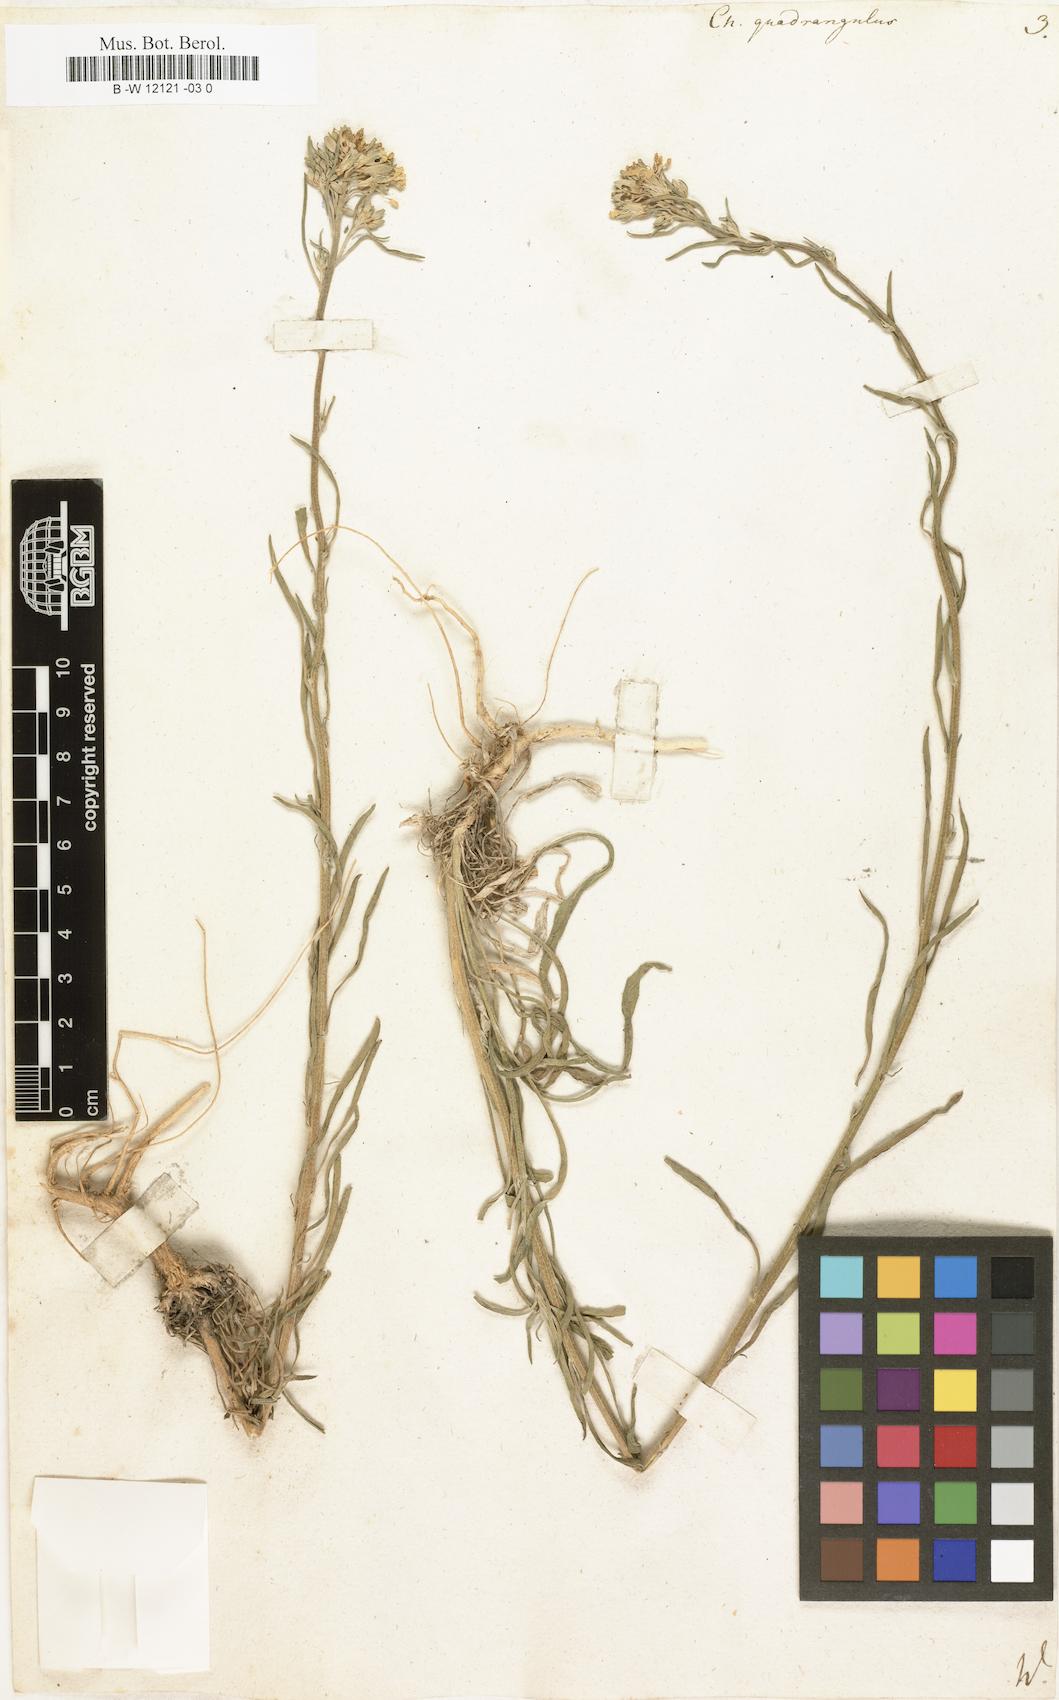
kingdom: Plantae
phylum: Tracheophyta
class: Magnoliopsida
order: Brassicales
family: Brassicaceae
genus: Erysimum
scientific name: Erysimum
